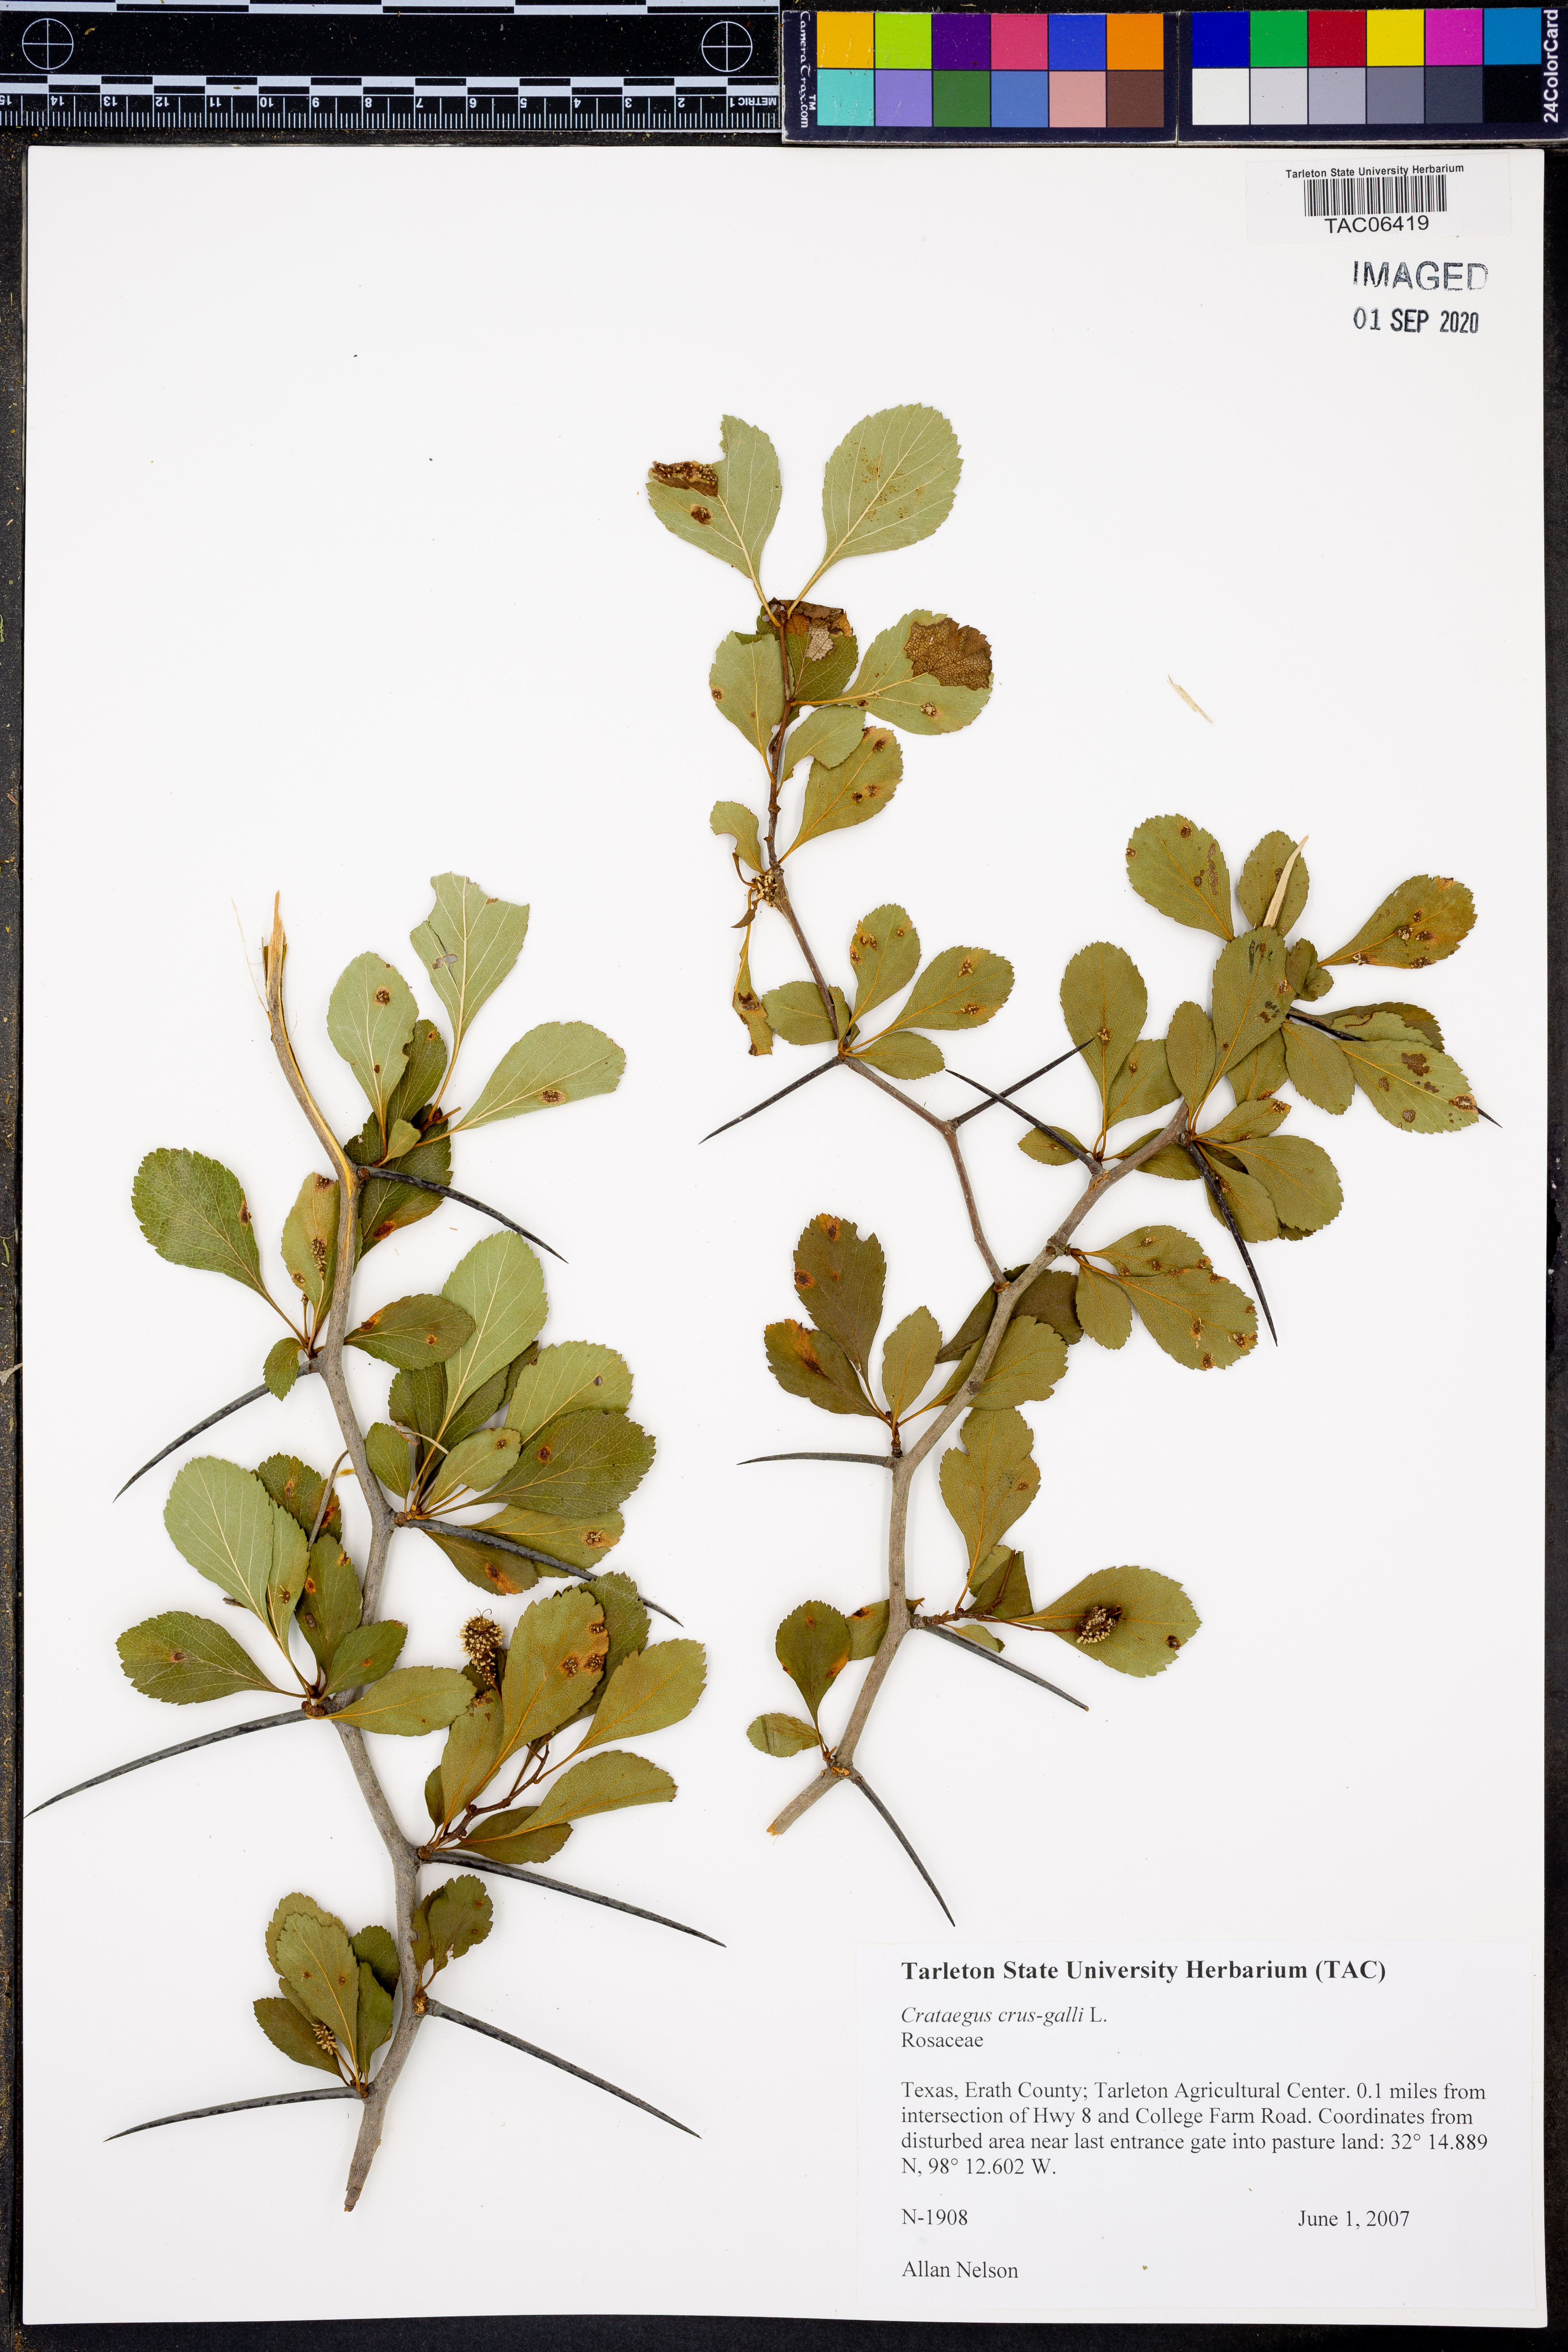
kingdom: Plantae
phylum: Tracheophyta
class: Magnoliopsida
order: Rosales
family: Rosaceae
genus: Crataegus
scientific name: Crataegus crus-galli
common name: Cockspurthorn
